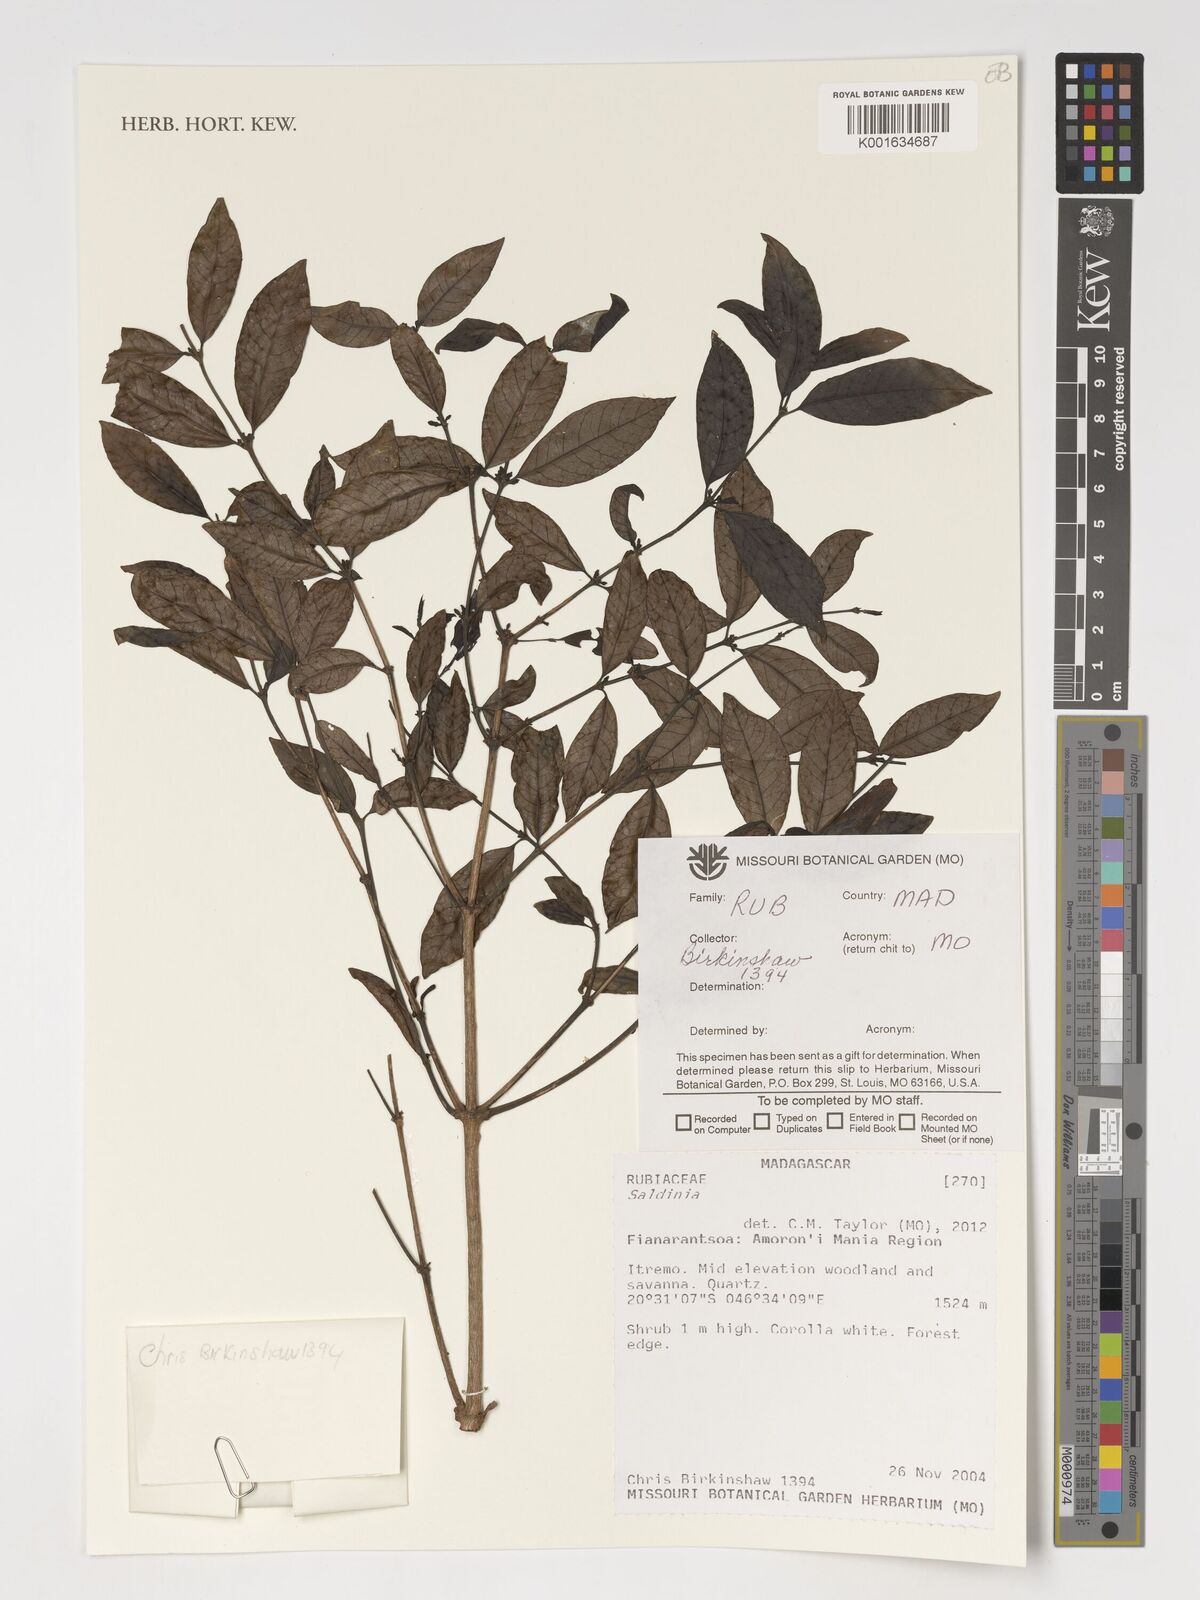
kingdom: Plantae
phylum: Tracheophyta
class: Magnoliopsida
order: Gentianales
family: Rubiaceae
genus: Saldinia
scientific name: Saldinia
